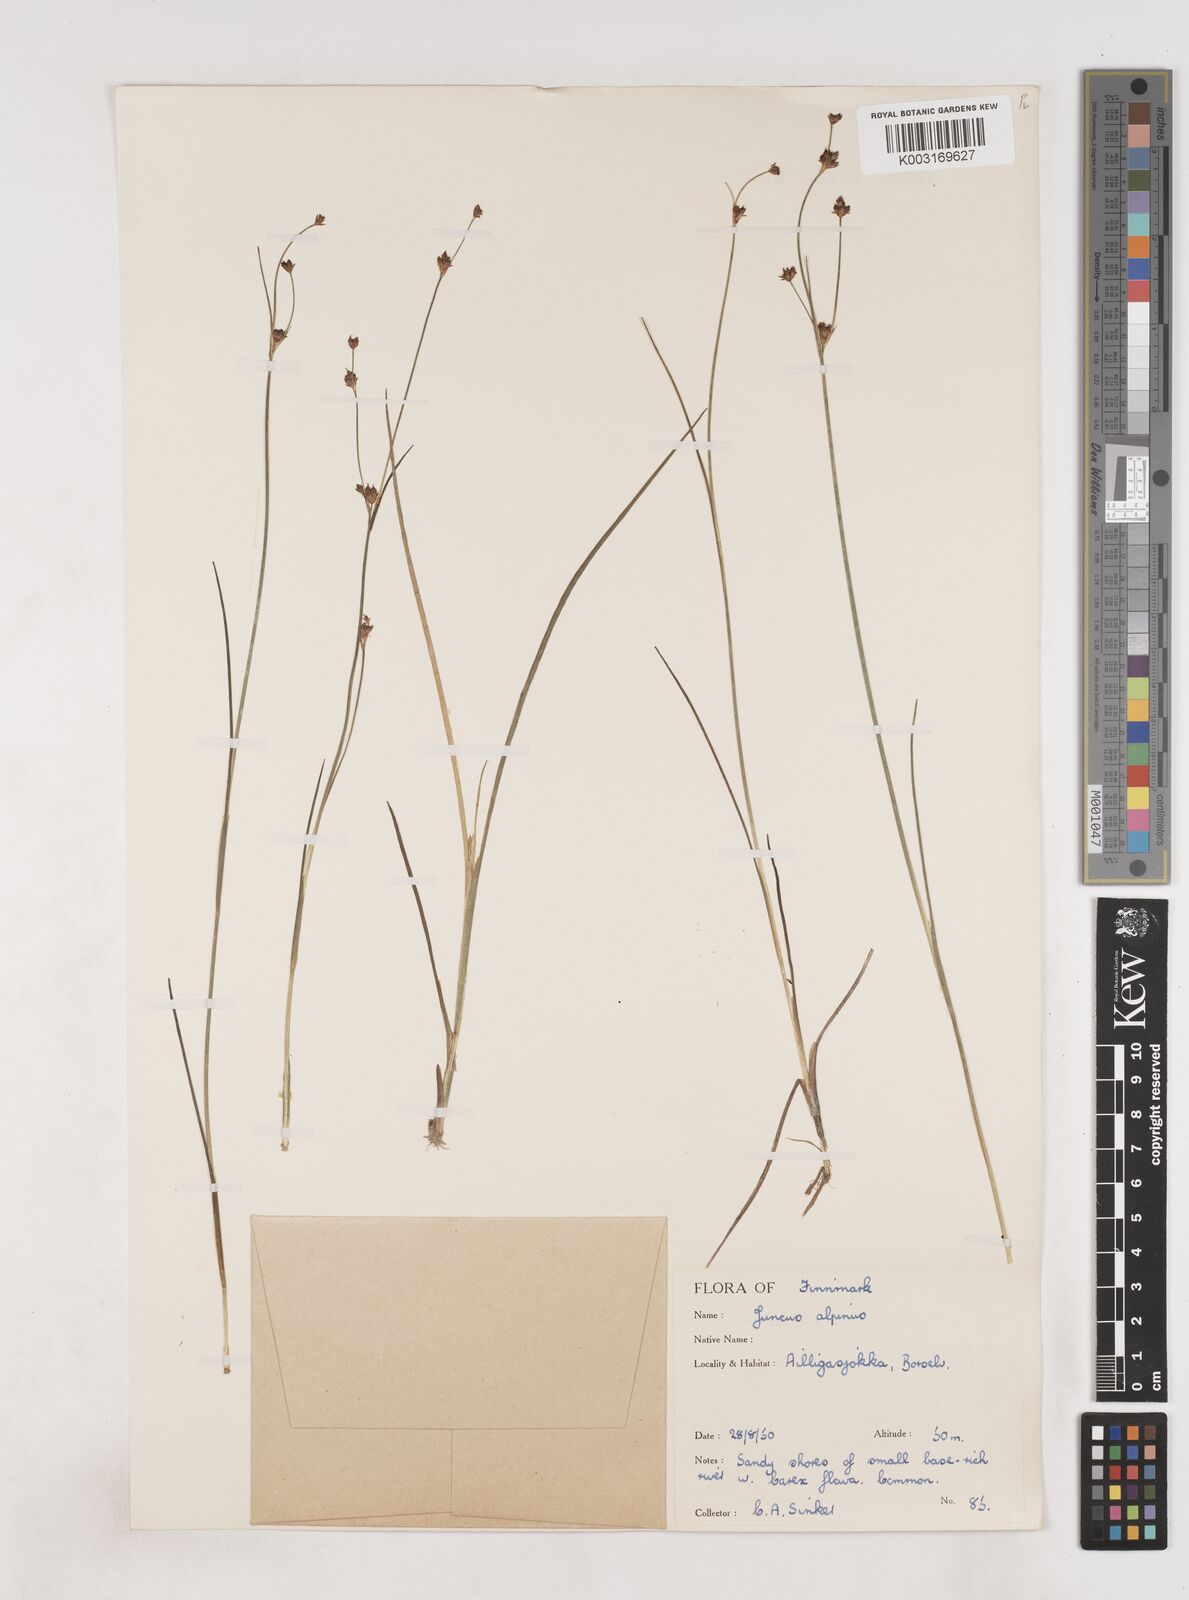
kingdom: Plantae
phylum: Tracheophyta
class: Liliopsida
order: Poales
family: Juncaceae
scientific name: Juncaceae
